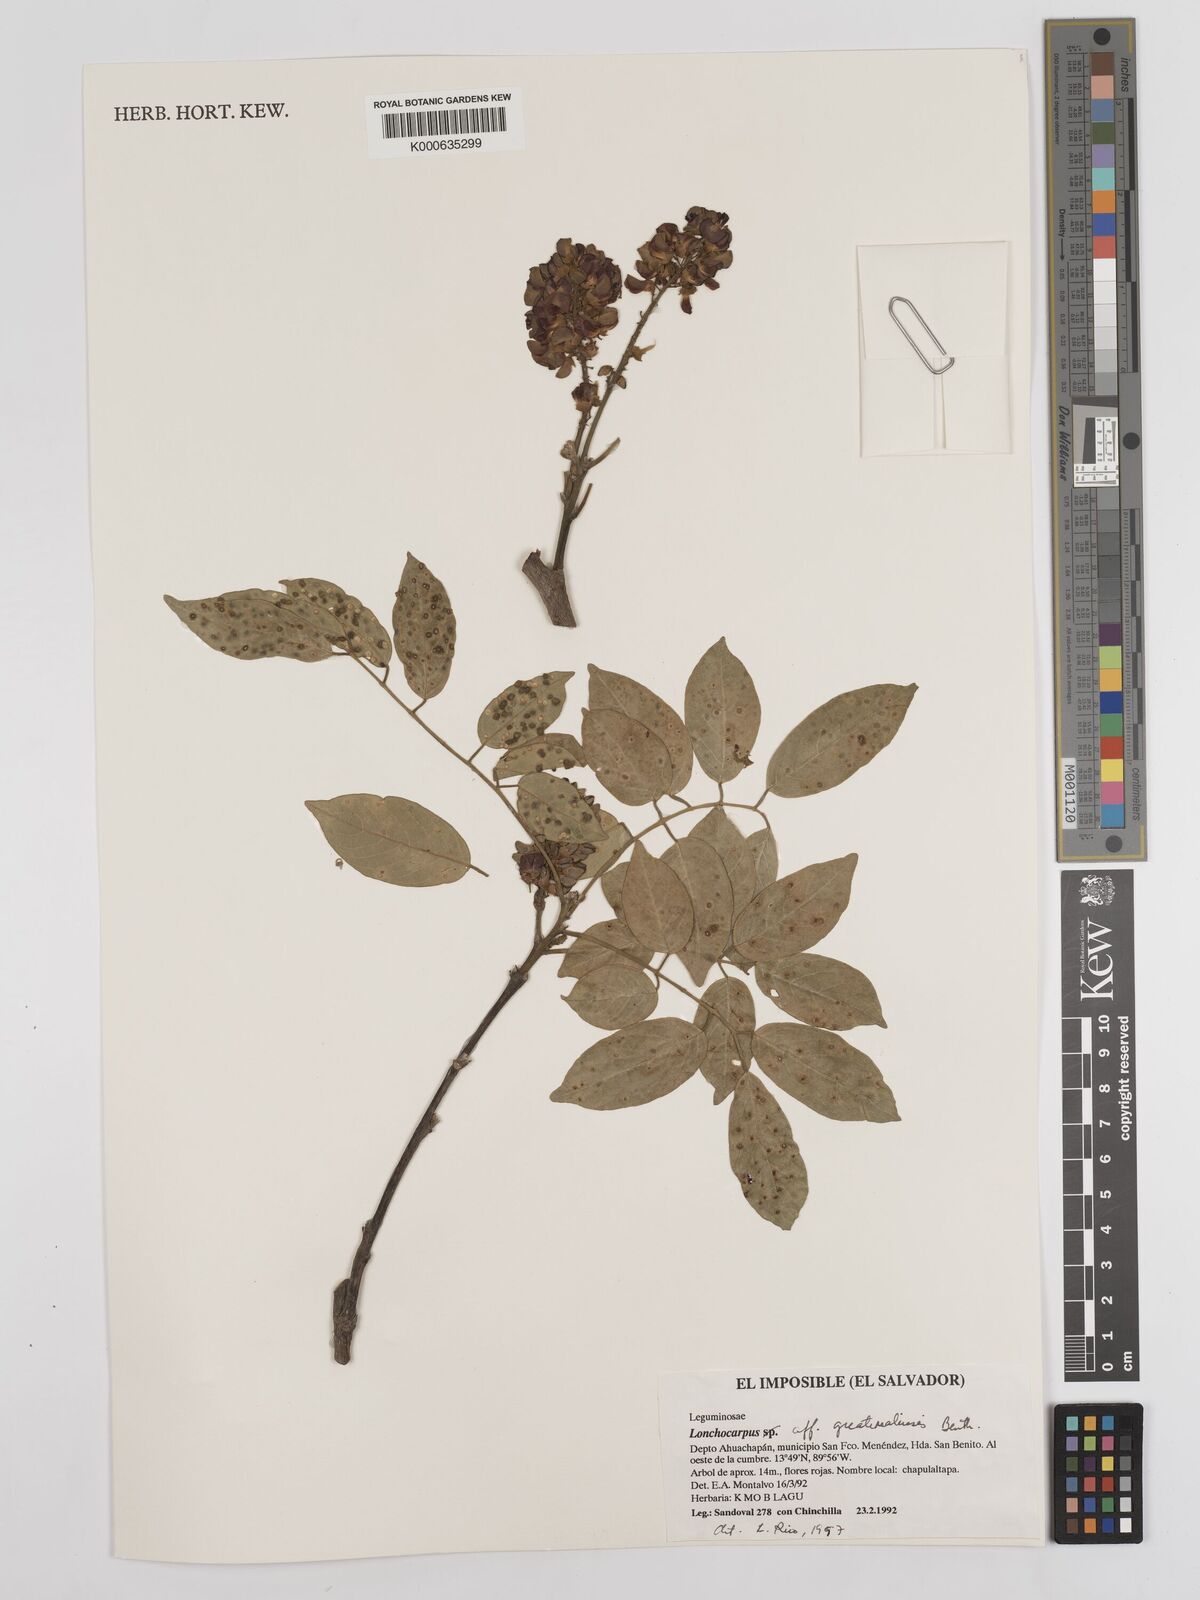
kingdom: Plantae
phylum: Tracheophyta
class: Magnoliopsida
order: Fabales
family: Fabaceae
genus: Lonchocarpus
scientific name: Lonchocarpus guatemalensis
